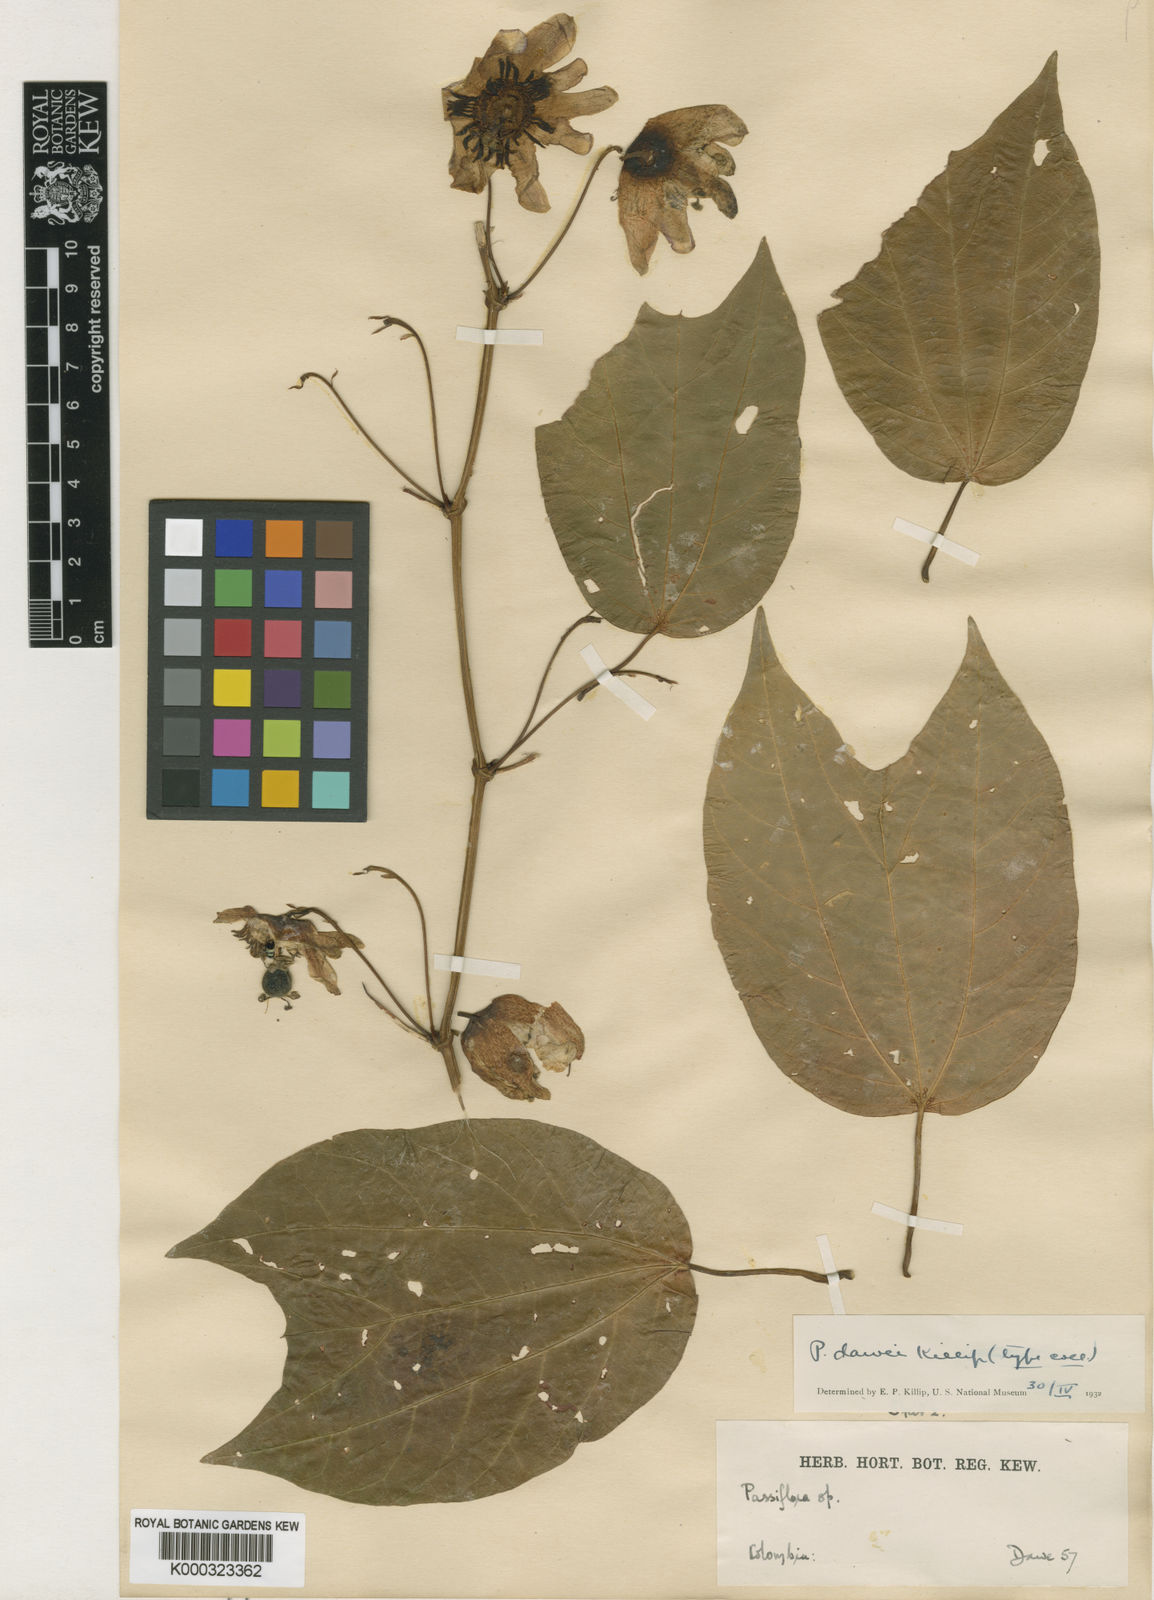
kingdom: Plantae
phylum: Tracheophyta
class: Magnoliopsida
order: Malpighiales
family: Passifloraceae
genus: Passiflora
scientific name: Passiflora dawei
